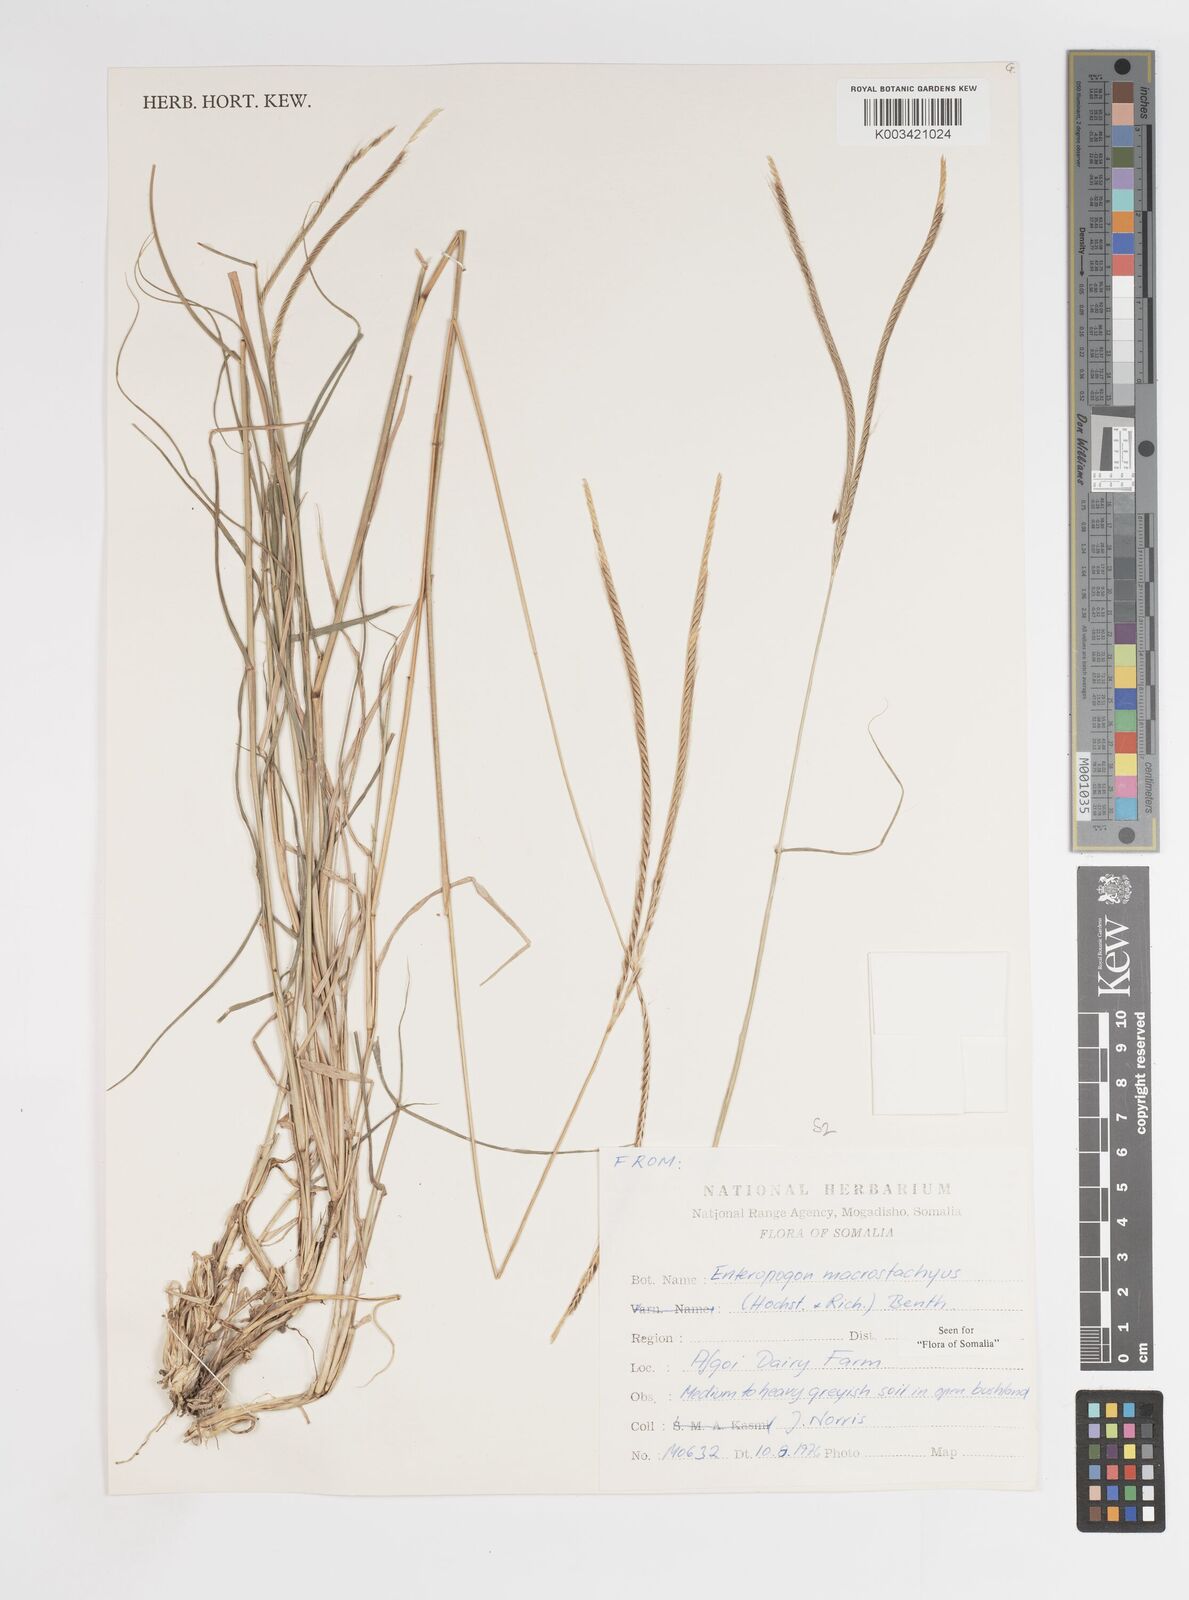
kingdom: Plantae
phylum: Tracheophyta
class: Liliopsida
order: Poales
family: Poaceae
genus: Enteropogon
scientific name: Enteropogon macrostachyus
